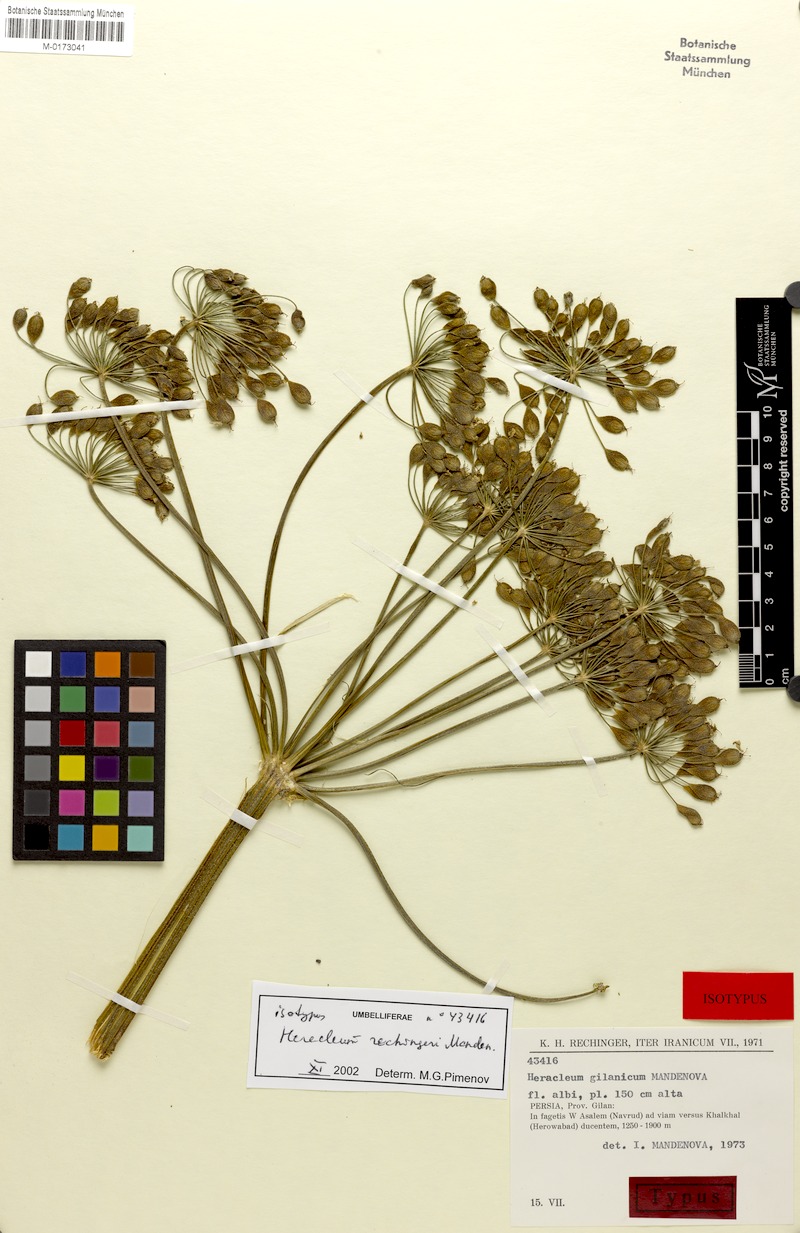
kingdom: Plantae
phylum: Tracheophyta
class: Magnoliopsida
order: Apiales
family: Apiaceae
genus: Heracleum
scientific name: Heracleum rechingeri
